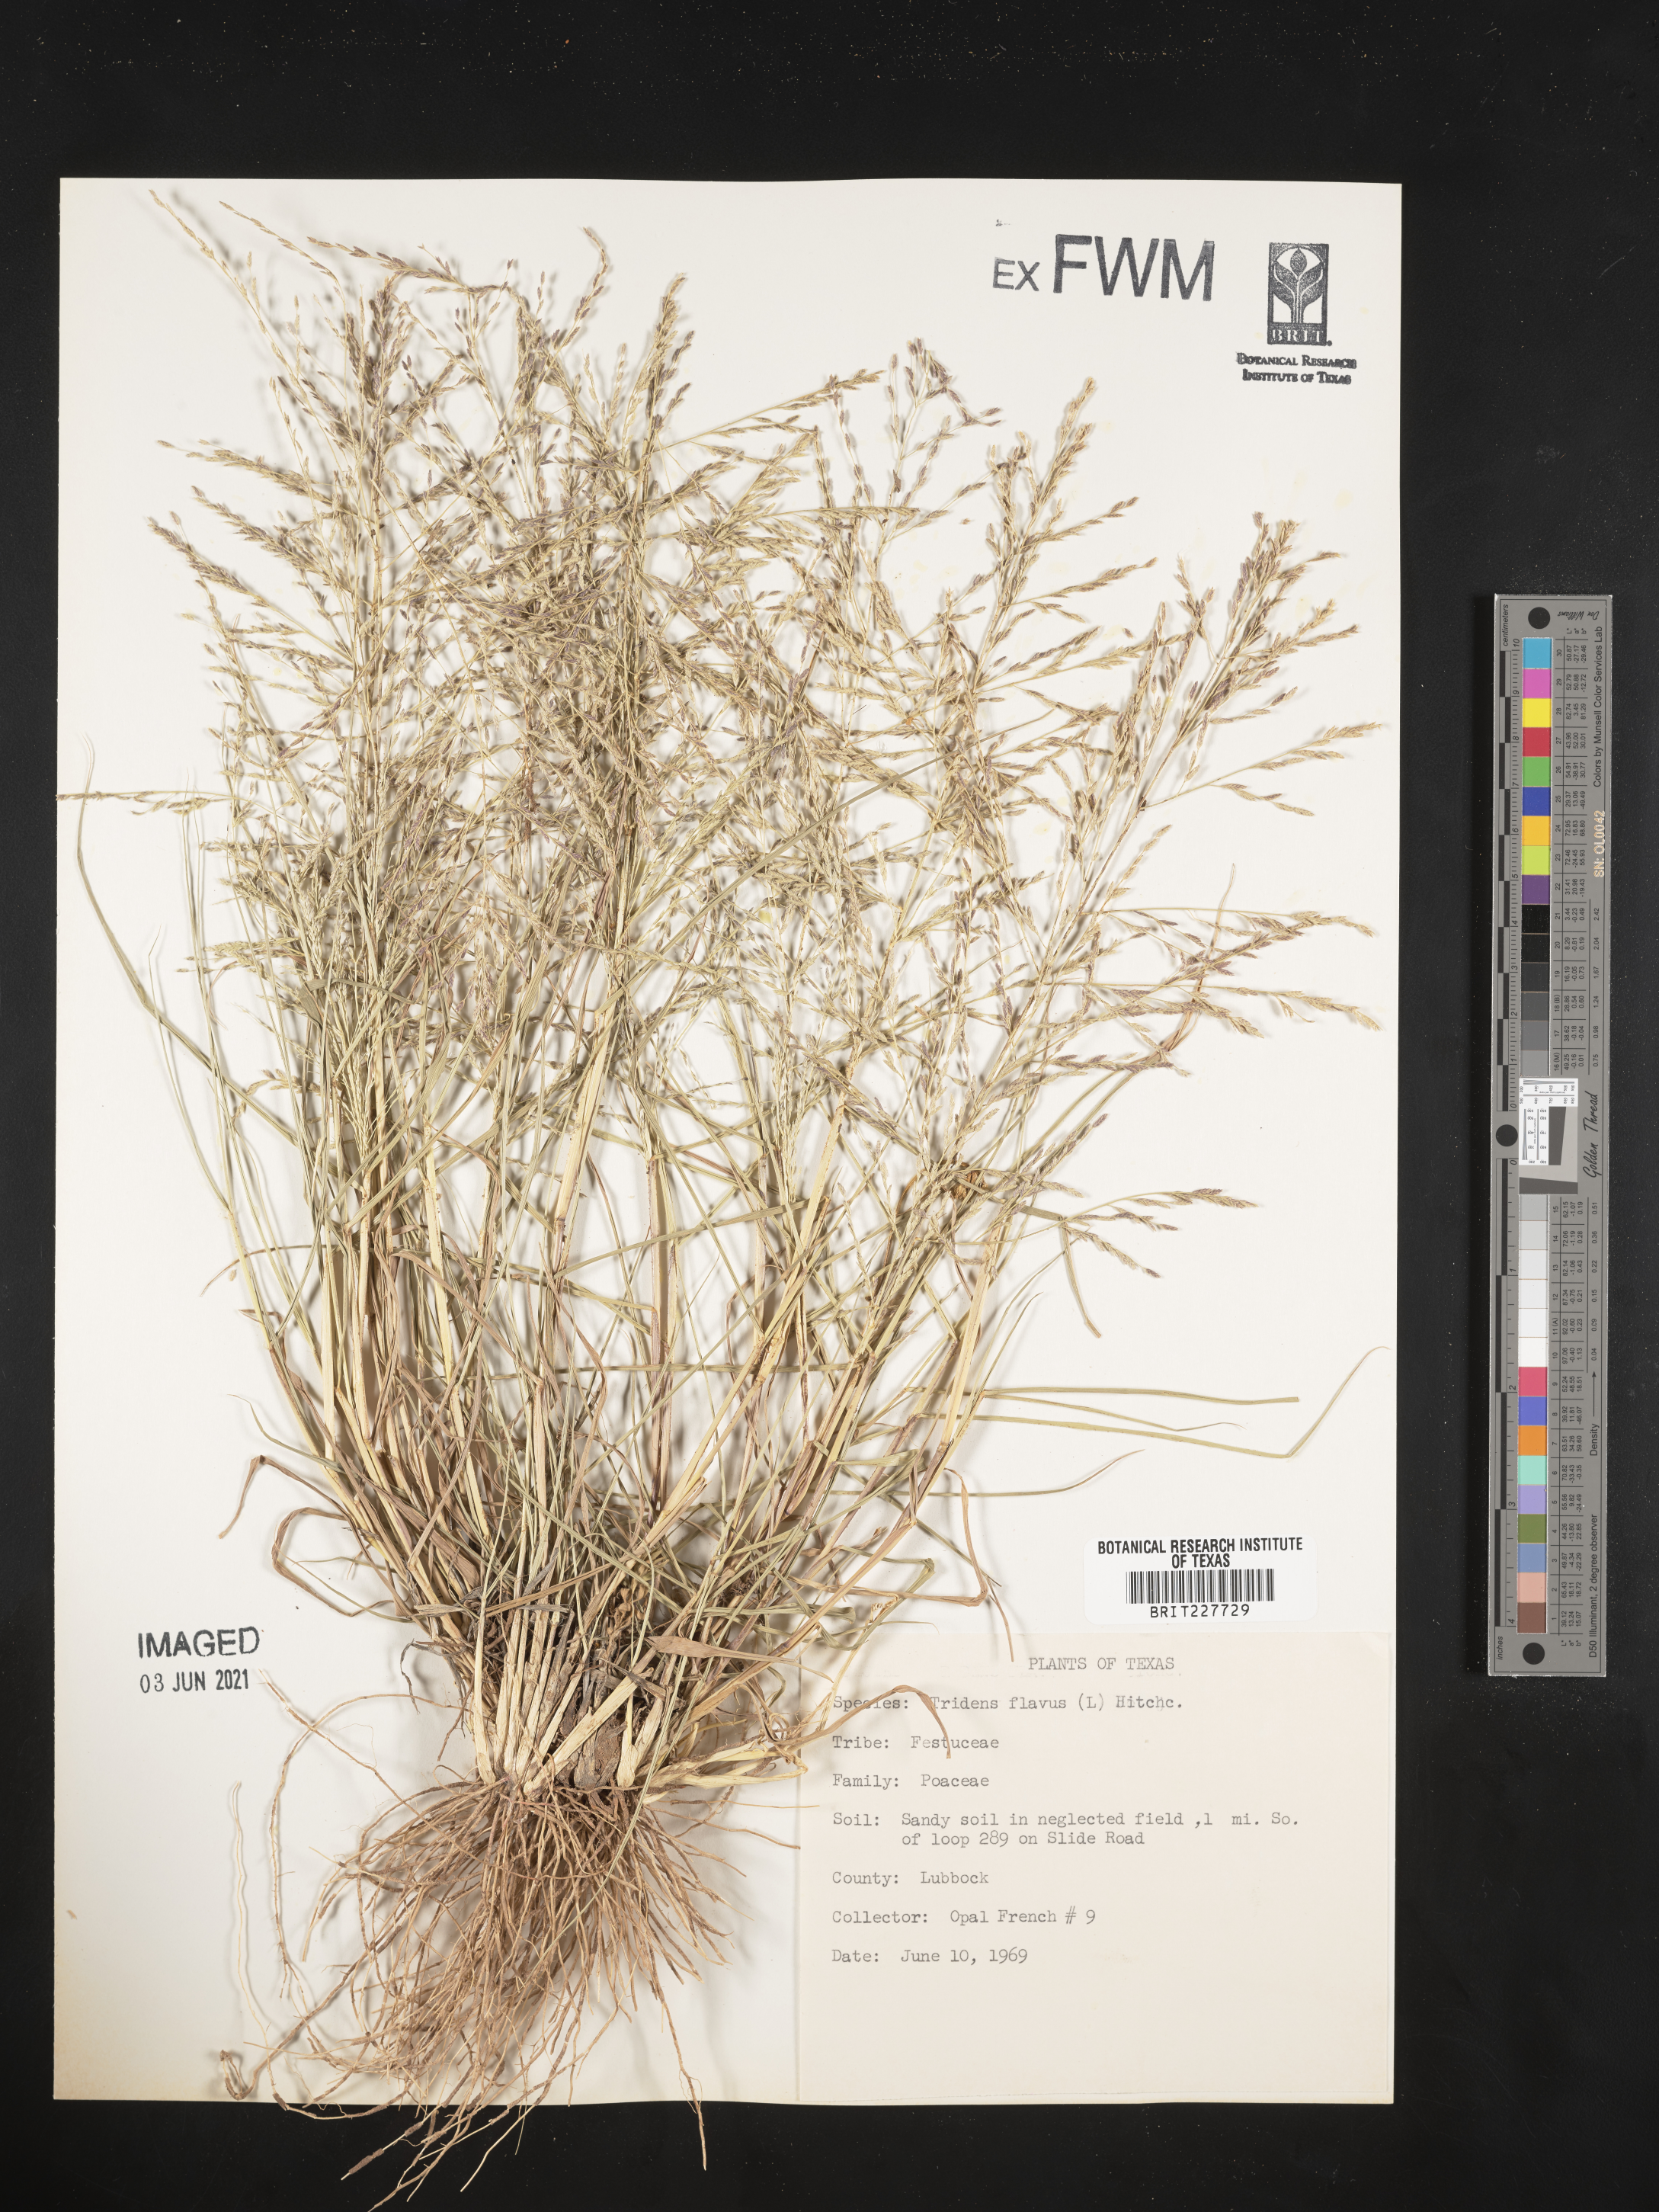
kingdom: Plantae
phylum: Tracheophyta
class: Liliopsida
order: Poales
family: Poaceae
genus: Tridens
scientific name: Tridens flavus
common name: Purpletop
